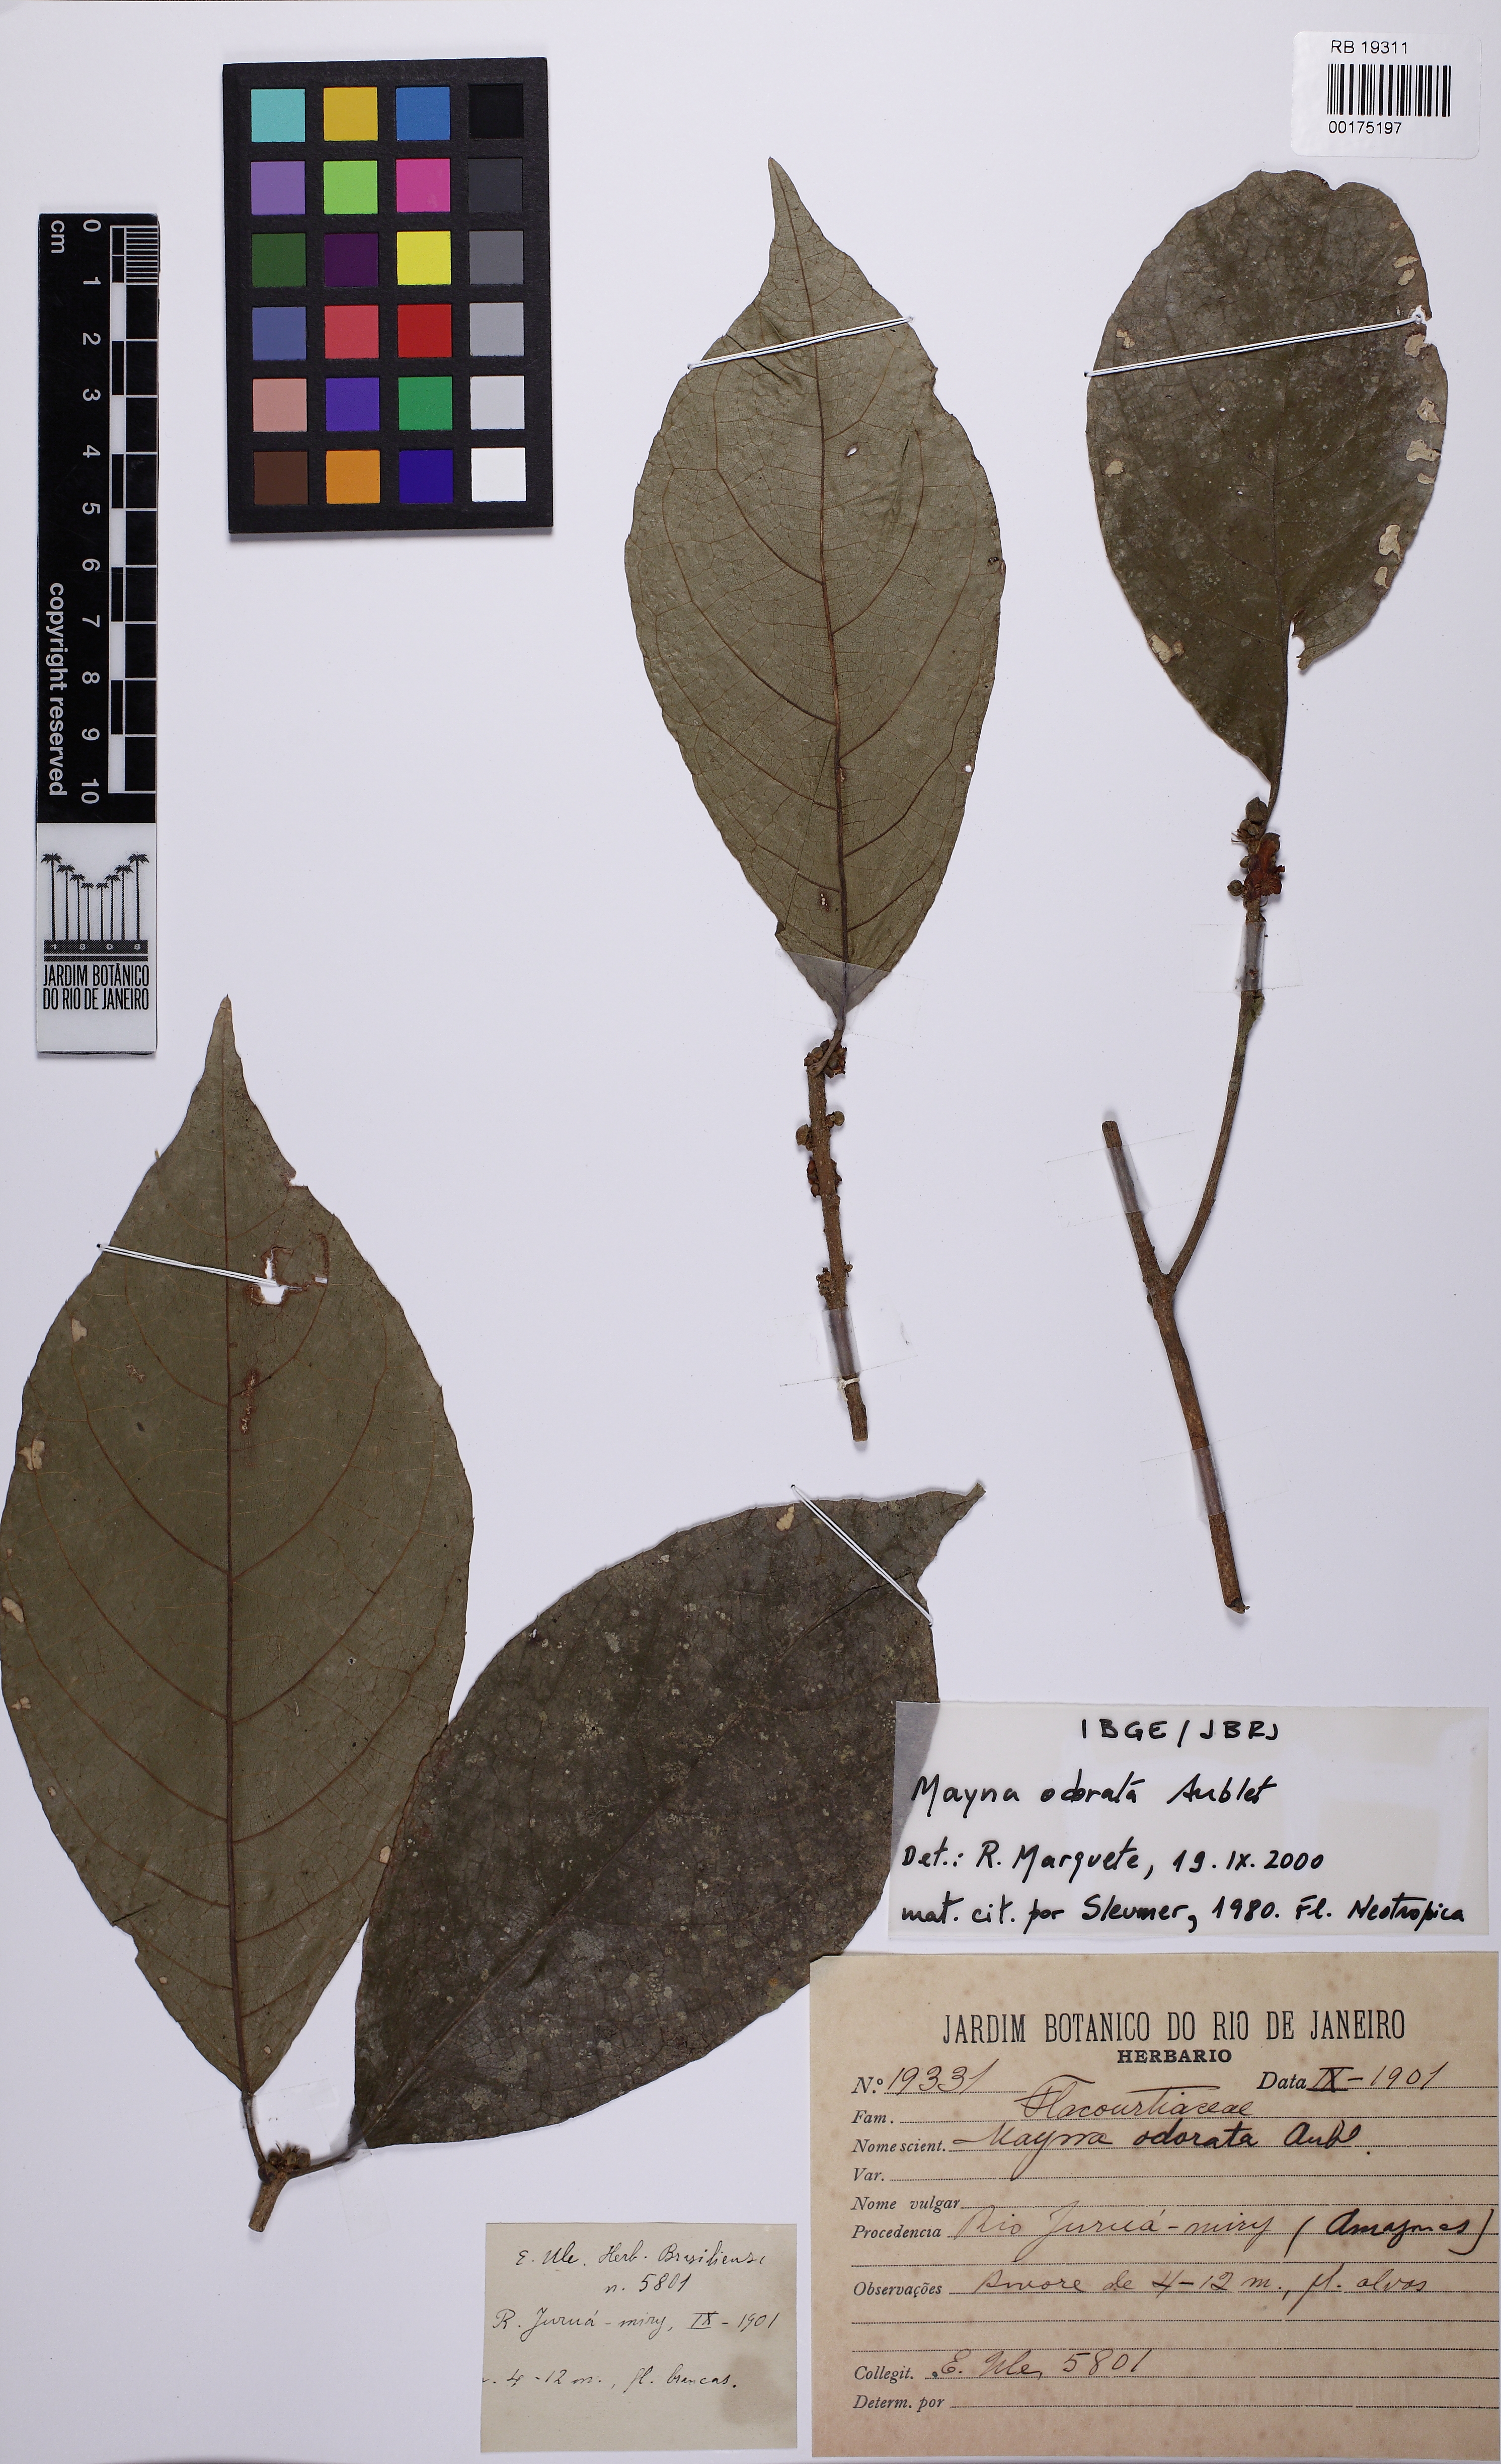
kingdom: Plantae
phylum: Tracheophyta
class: Magnoliopsida
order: Malpighiales
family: Achariaceae
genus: Lindackeria
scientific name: Lindackeria ovata
